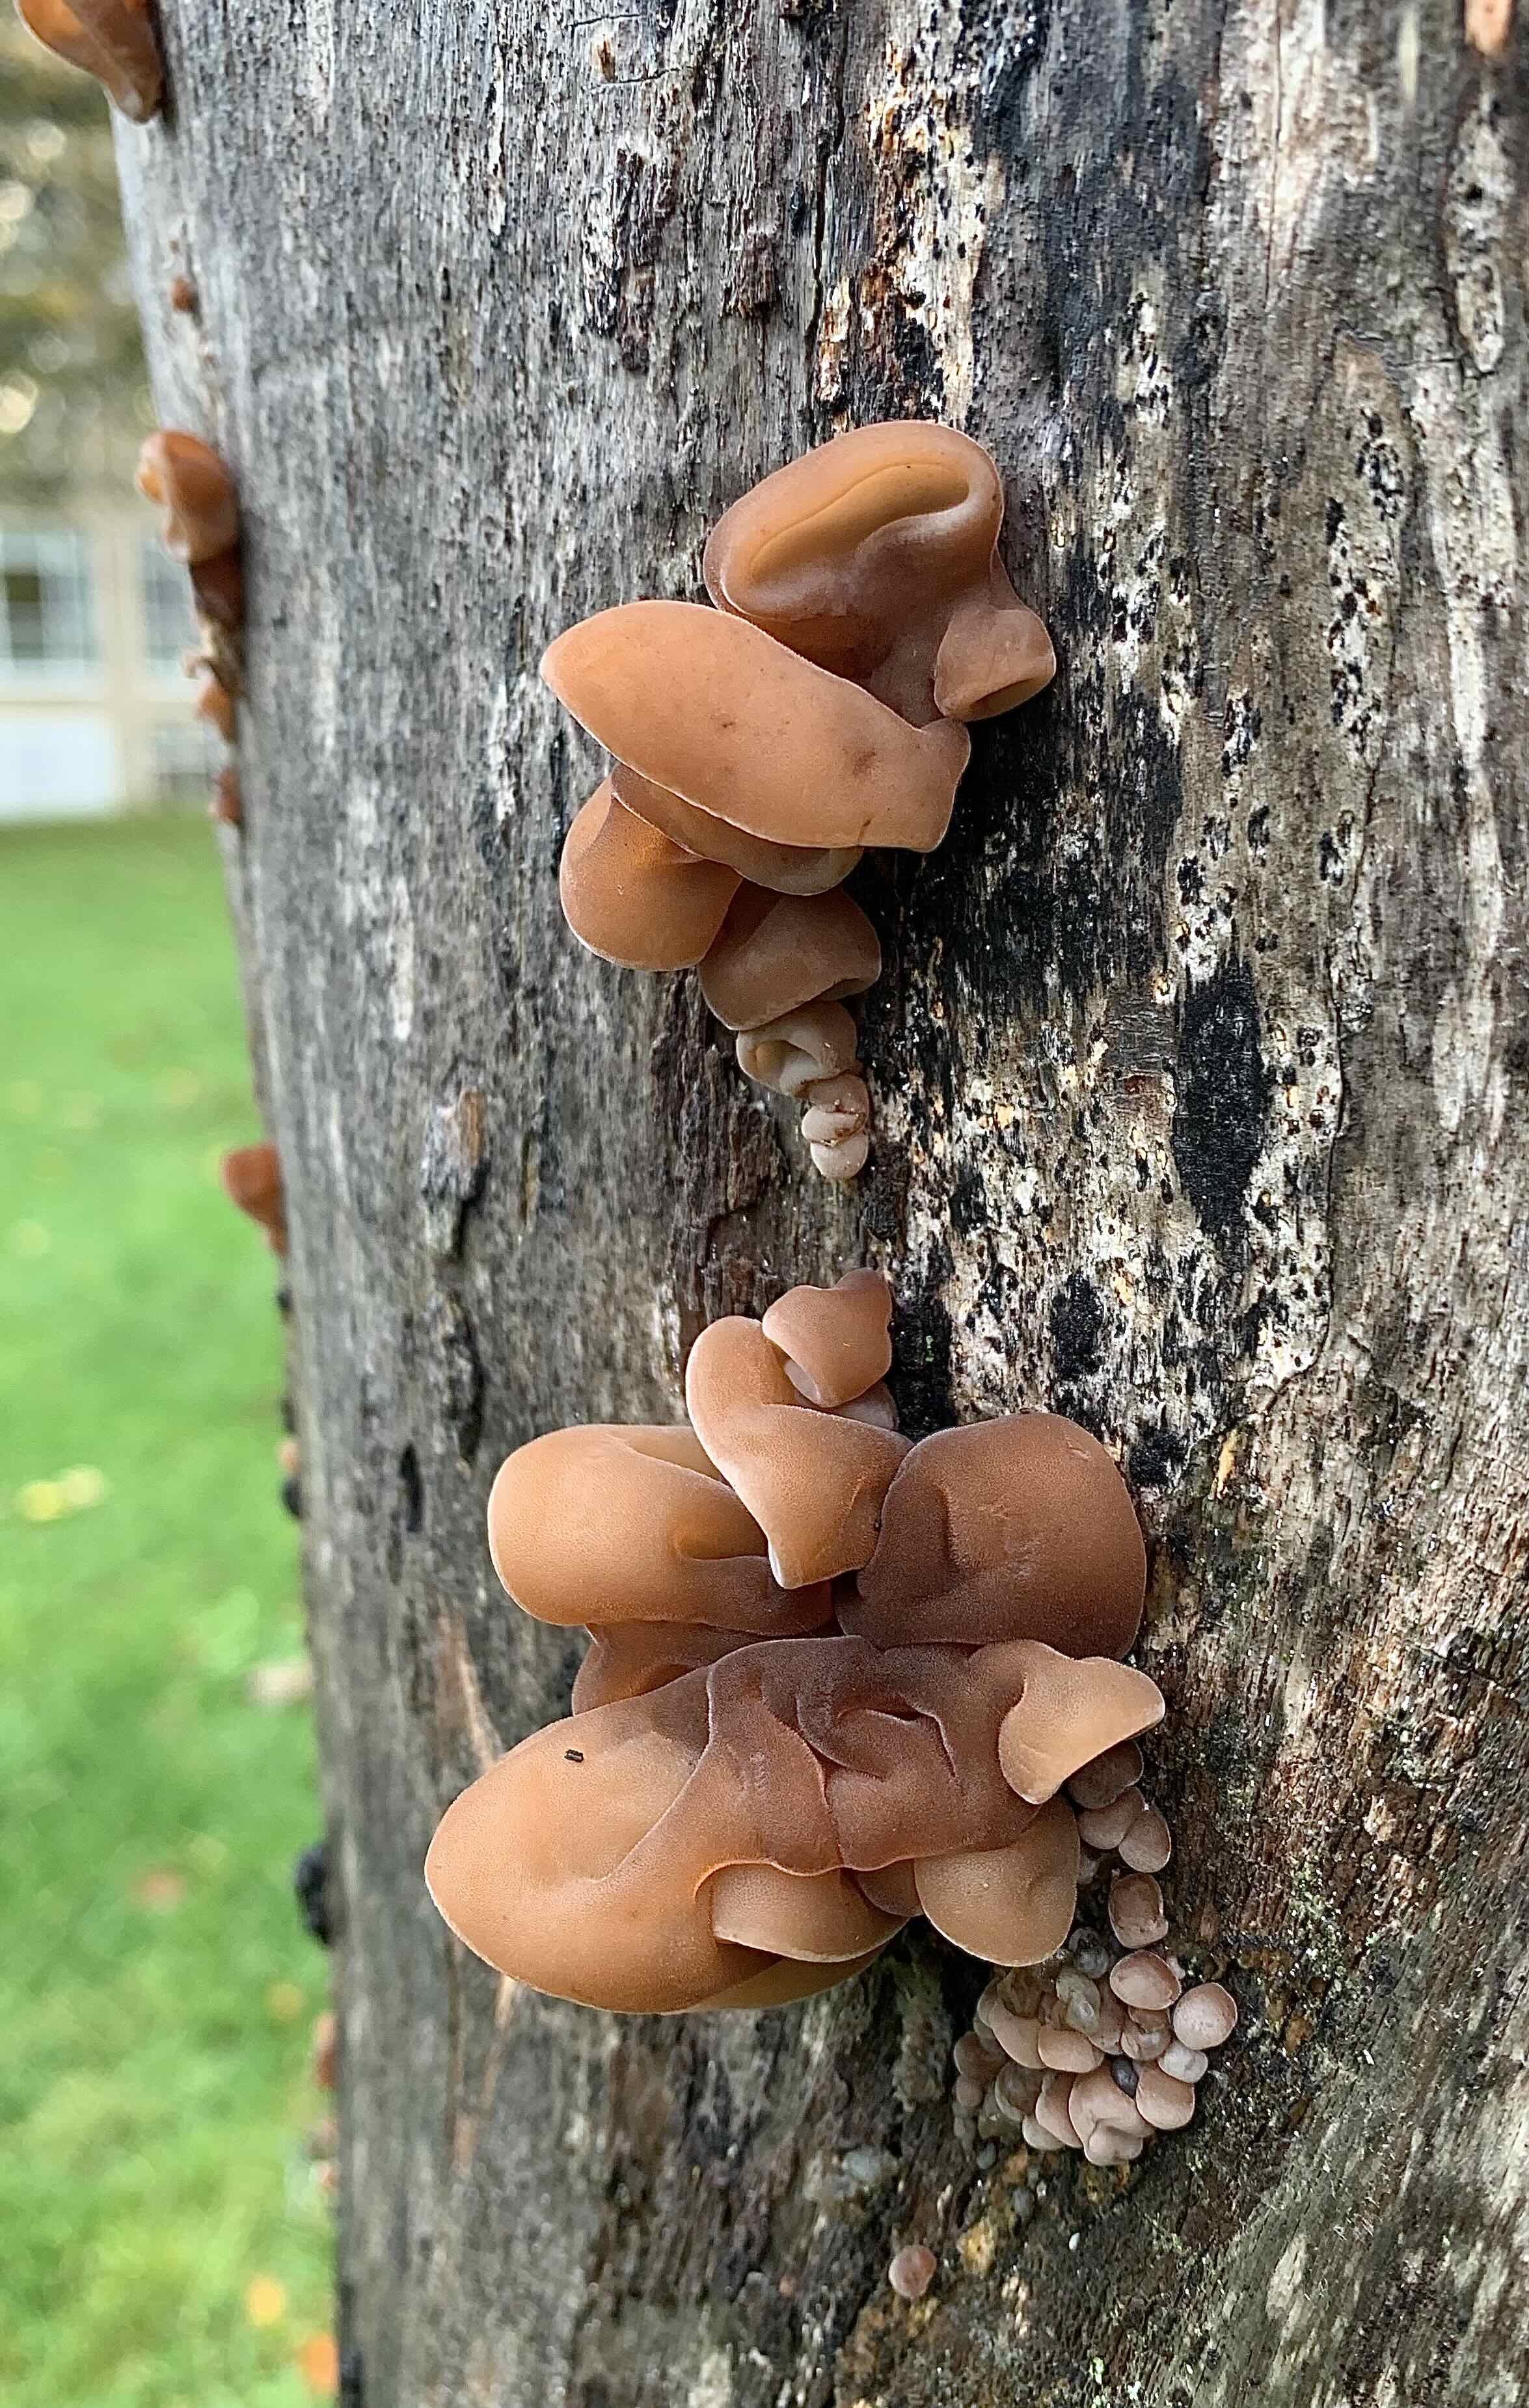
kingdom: Fungi
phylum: Basidiomycota
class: Agaricomycetes
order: Auriculariales
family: Auriculariaceae
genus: Auricularia
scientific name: Auricularia auricula-judae
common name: almindelig judasøre
